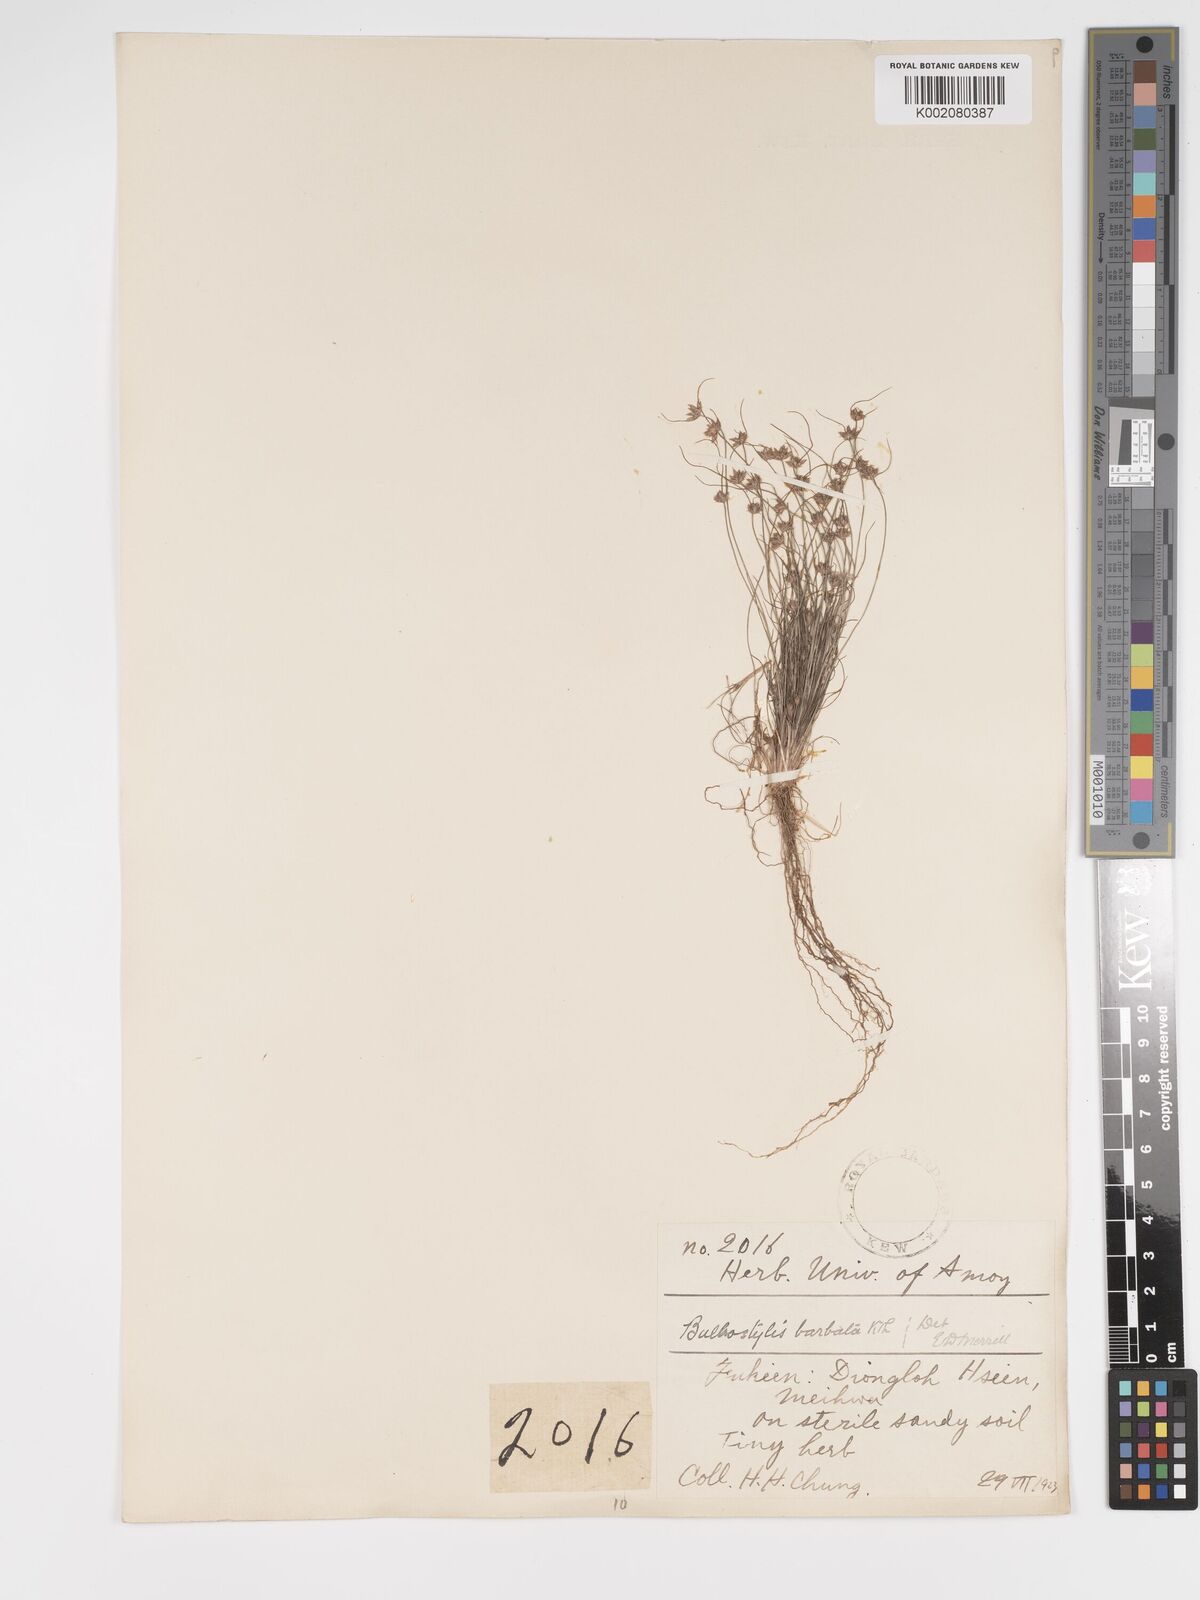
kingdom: Plantae
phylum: Tracheophyta
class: Liliopsida
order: Poales
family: Cyperaceae
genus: Bulbostylis
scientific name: Bulbostylis barbata
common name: Watergrass
